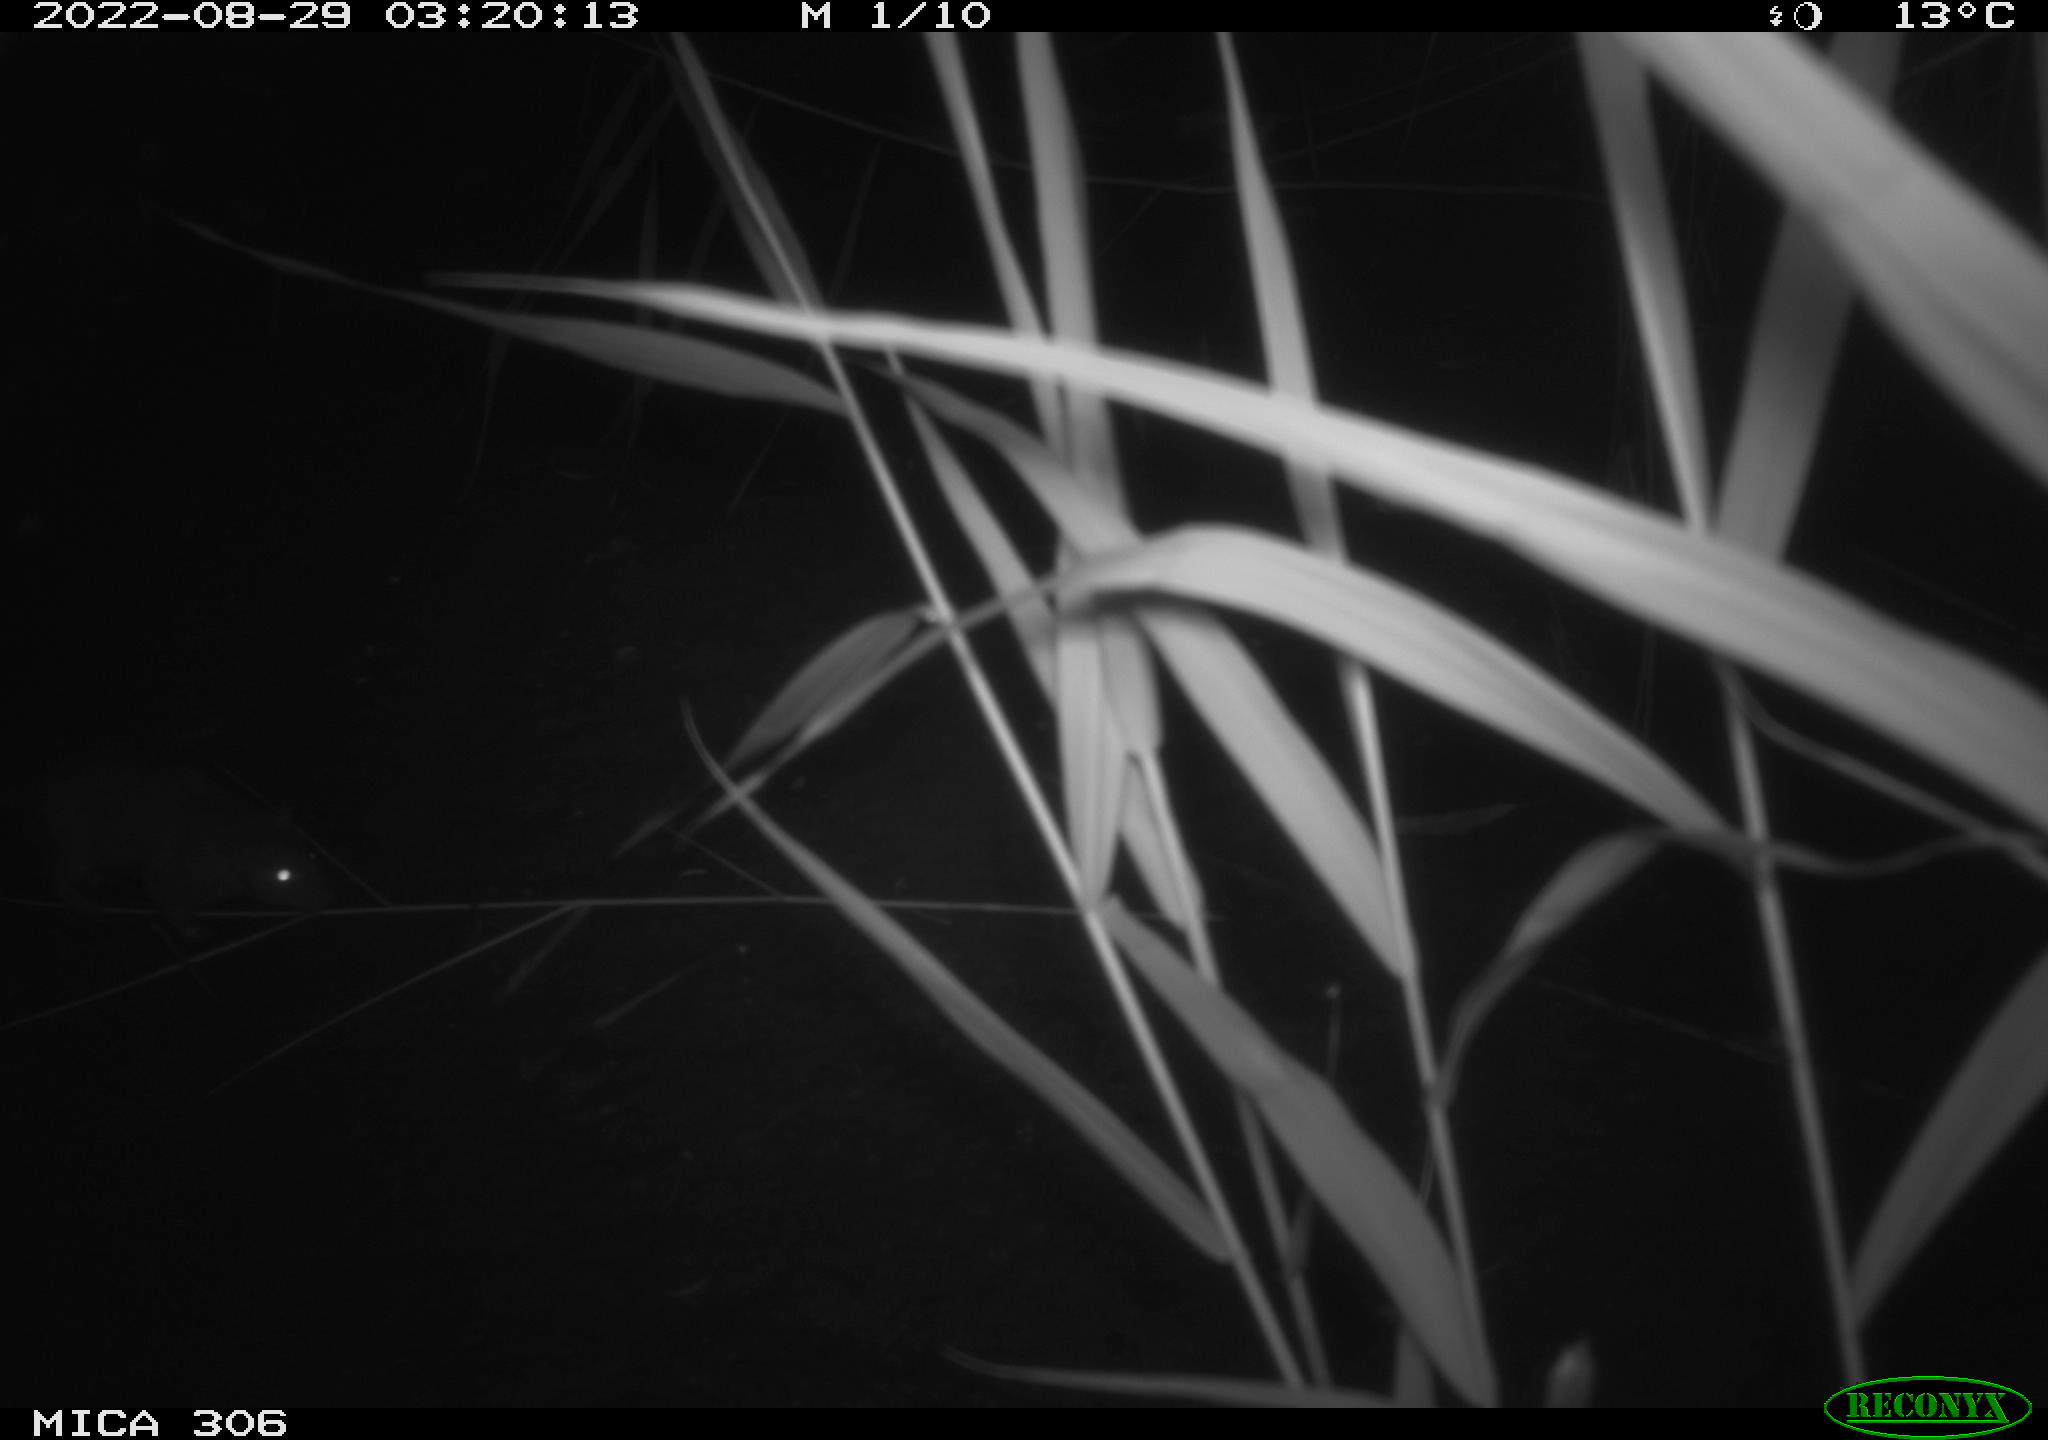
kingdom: Animalia
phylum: Chordata
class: Mammalia
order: Rodentia
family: Muridae
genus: Rattus
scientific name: Rattus norvegicus
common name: Brown rat
